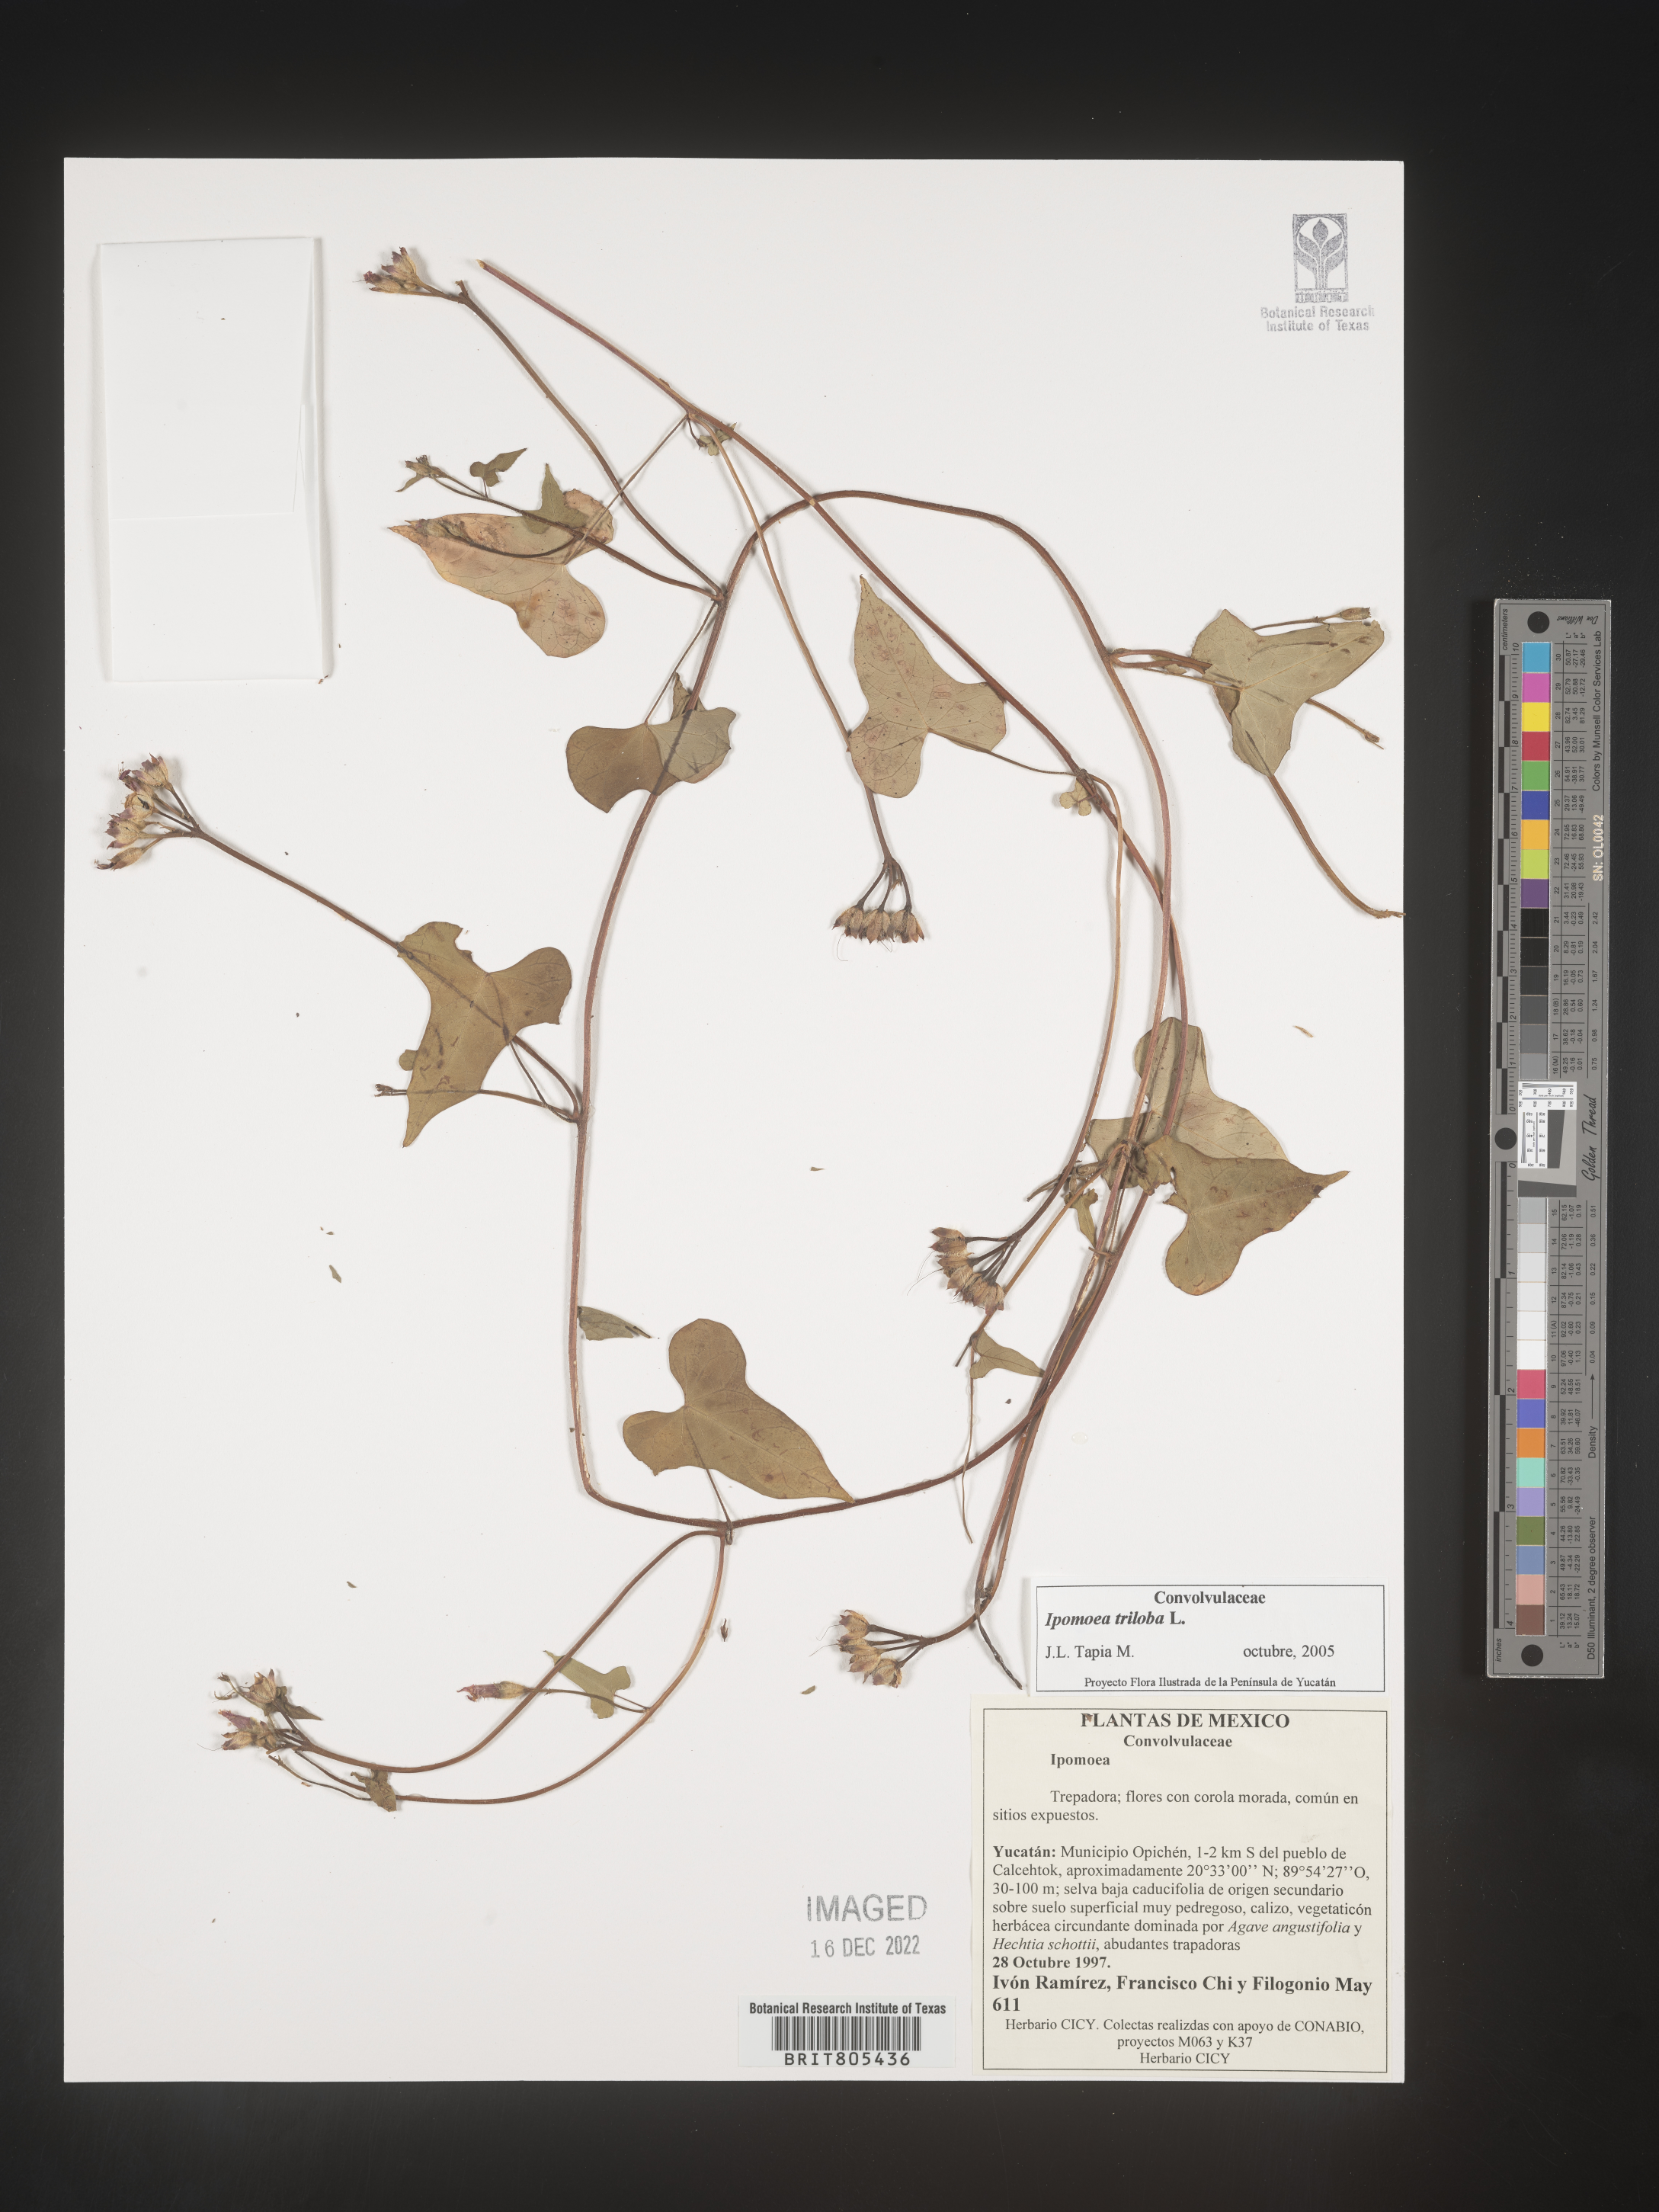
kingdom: Plantae
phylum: Tracheophyta
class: Magnoliopsida
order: Solanales
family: Convolvulaceae
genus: Ipomoea
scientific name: Ipomoea
